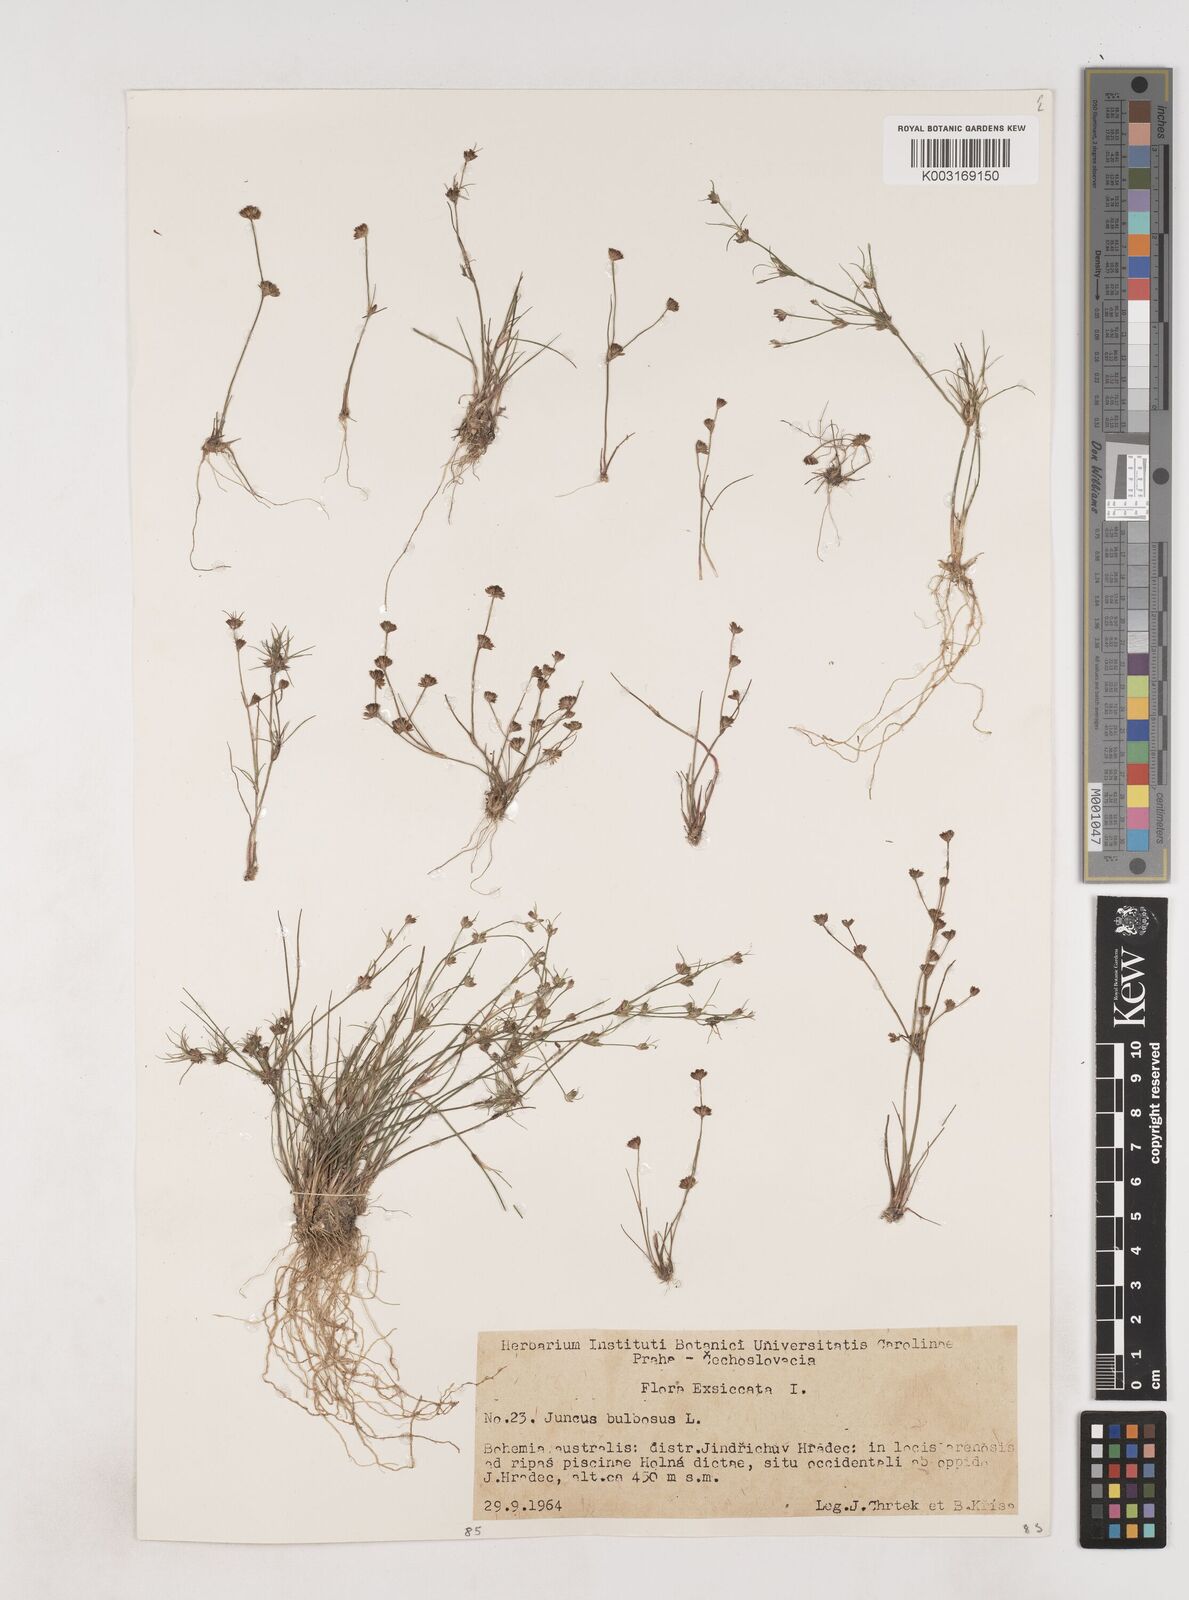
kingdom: Plantae
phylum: Tracheophyta
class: Liliopsida
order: Poales
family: Juncaceae
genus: Juncus
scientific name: Juncus bulbosus
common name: Bulbous rush
